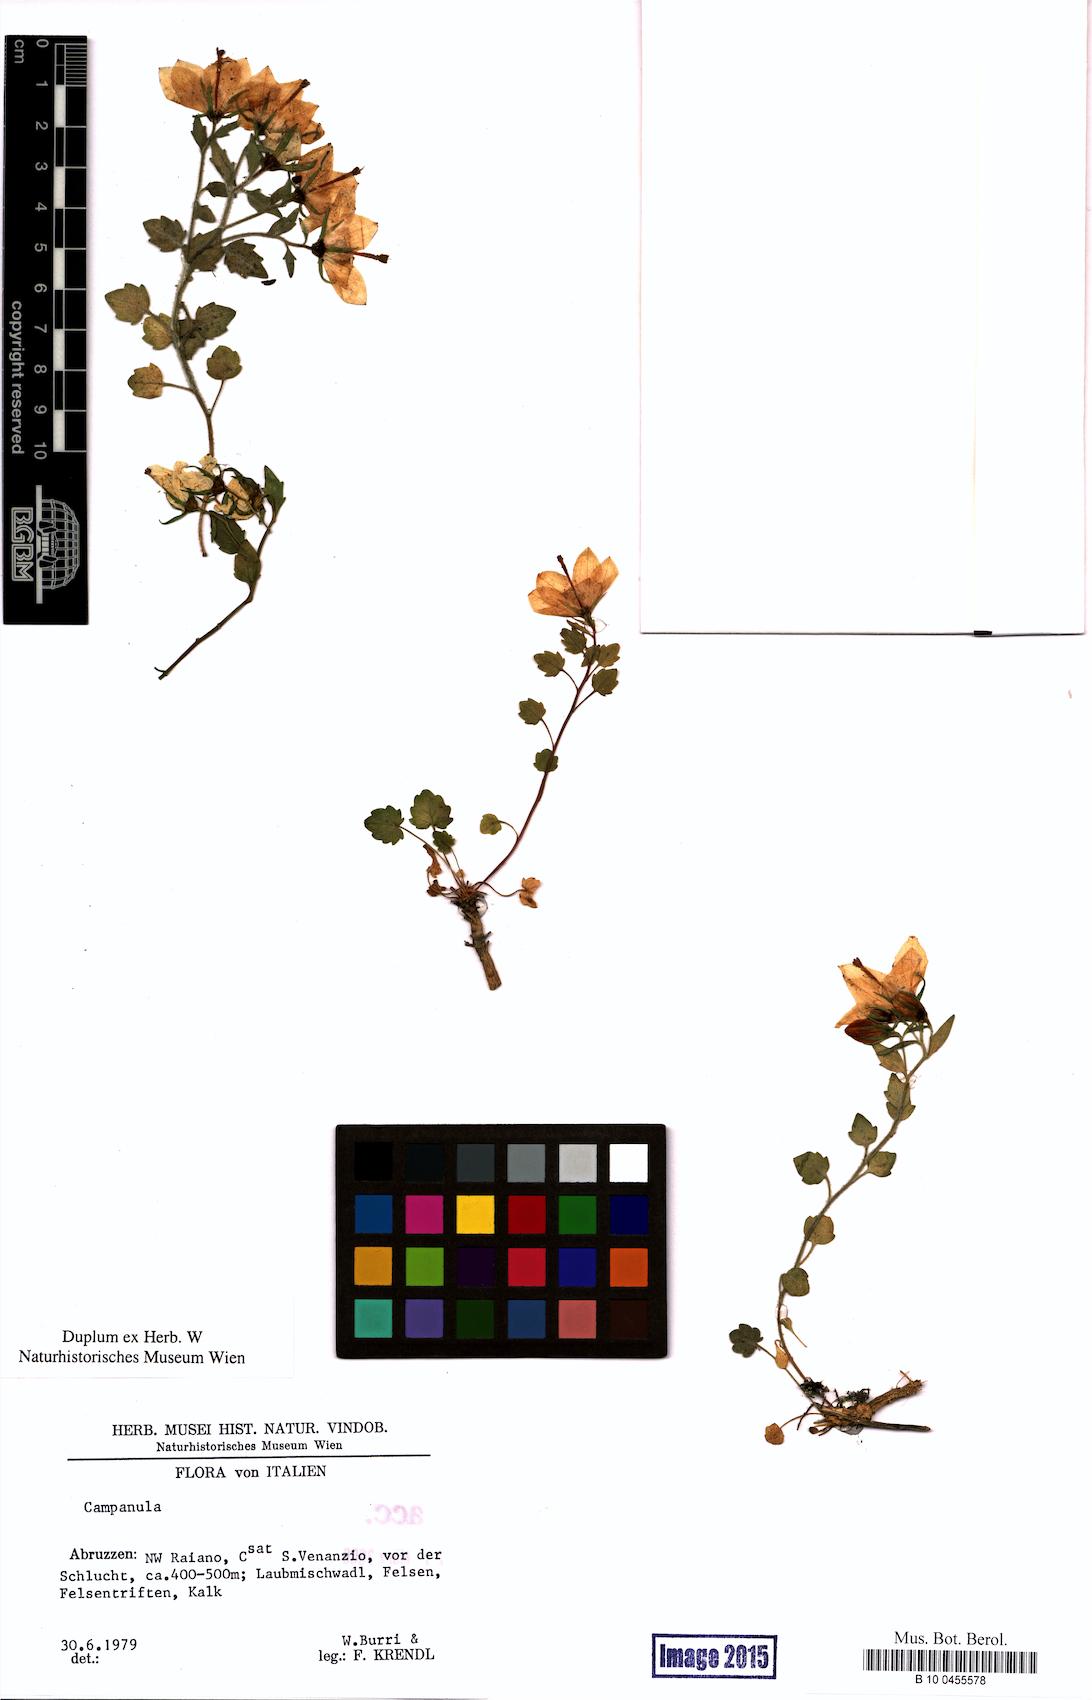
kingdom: Plantae
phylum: Tracheophyta
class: Magnoliopsida
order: Asterales
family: Campanulaceae
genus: Campanula
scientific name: Campanula
